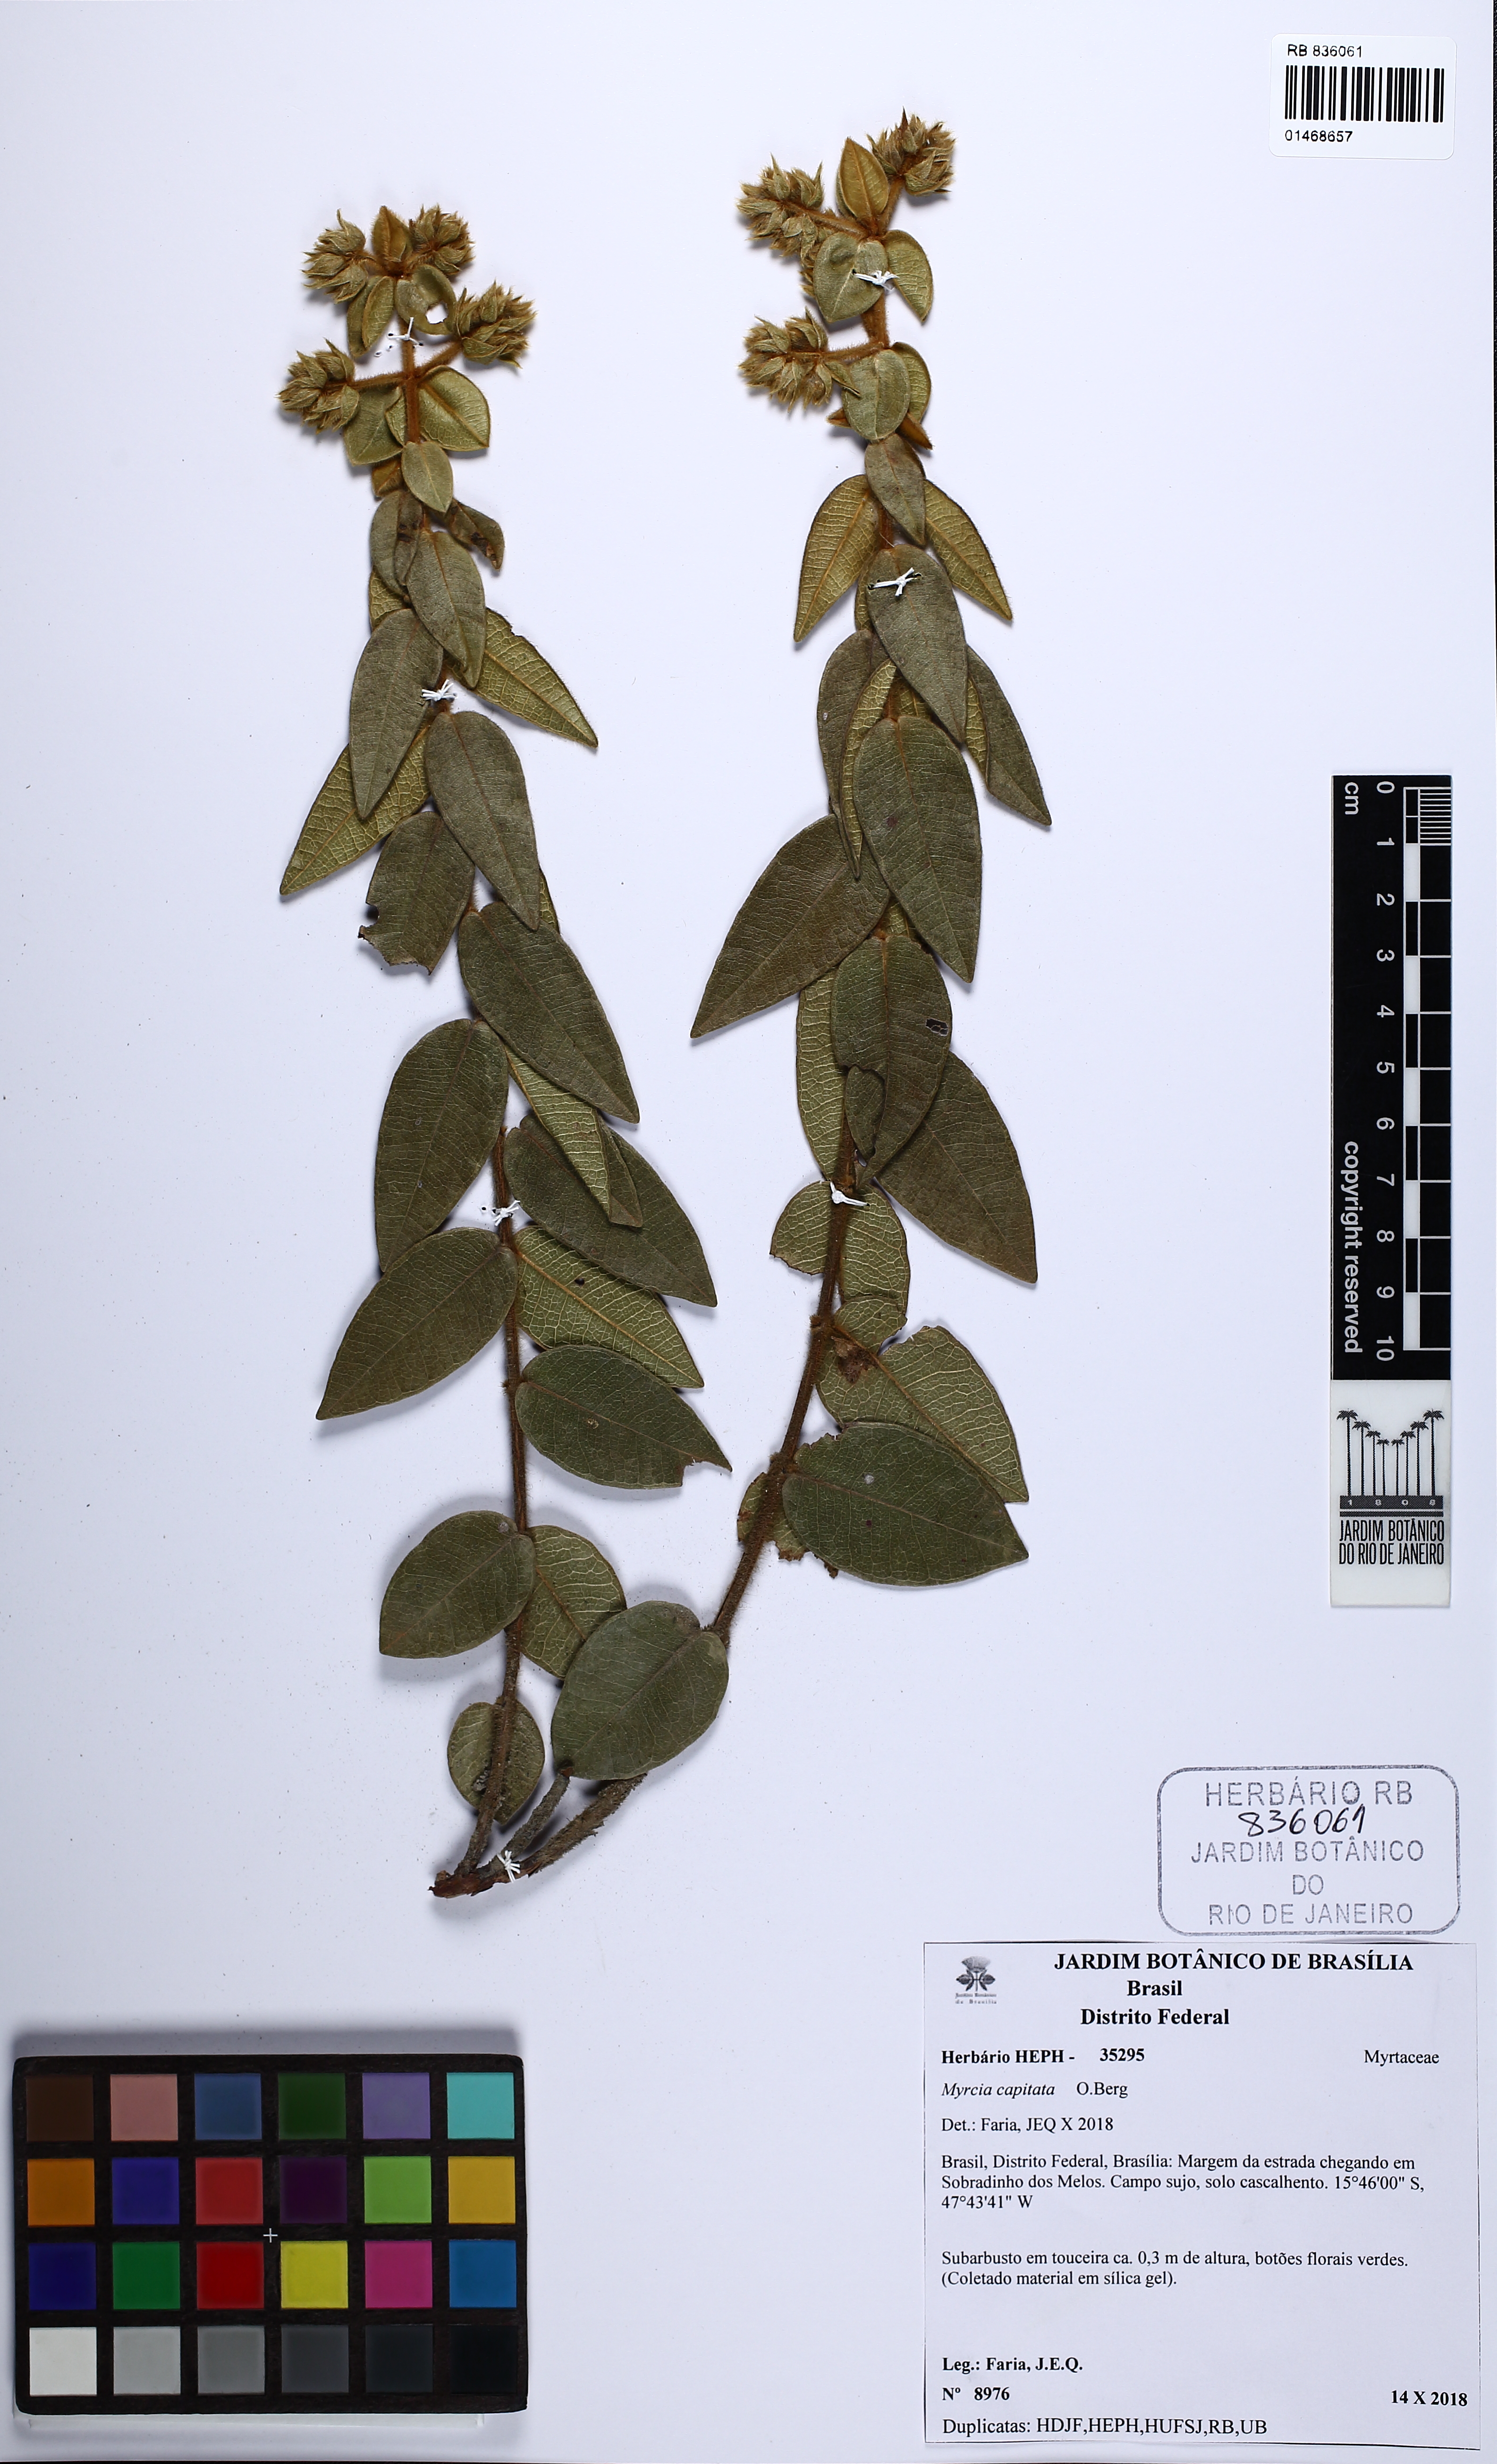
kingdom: Plantae
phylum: Tracheophyta
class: Magnoliopsida
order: Myrtales
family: Myrtaceae
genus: Myrcia
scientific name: Myrcia capitata
